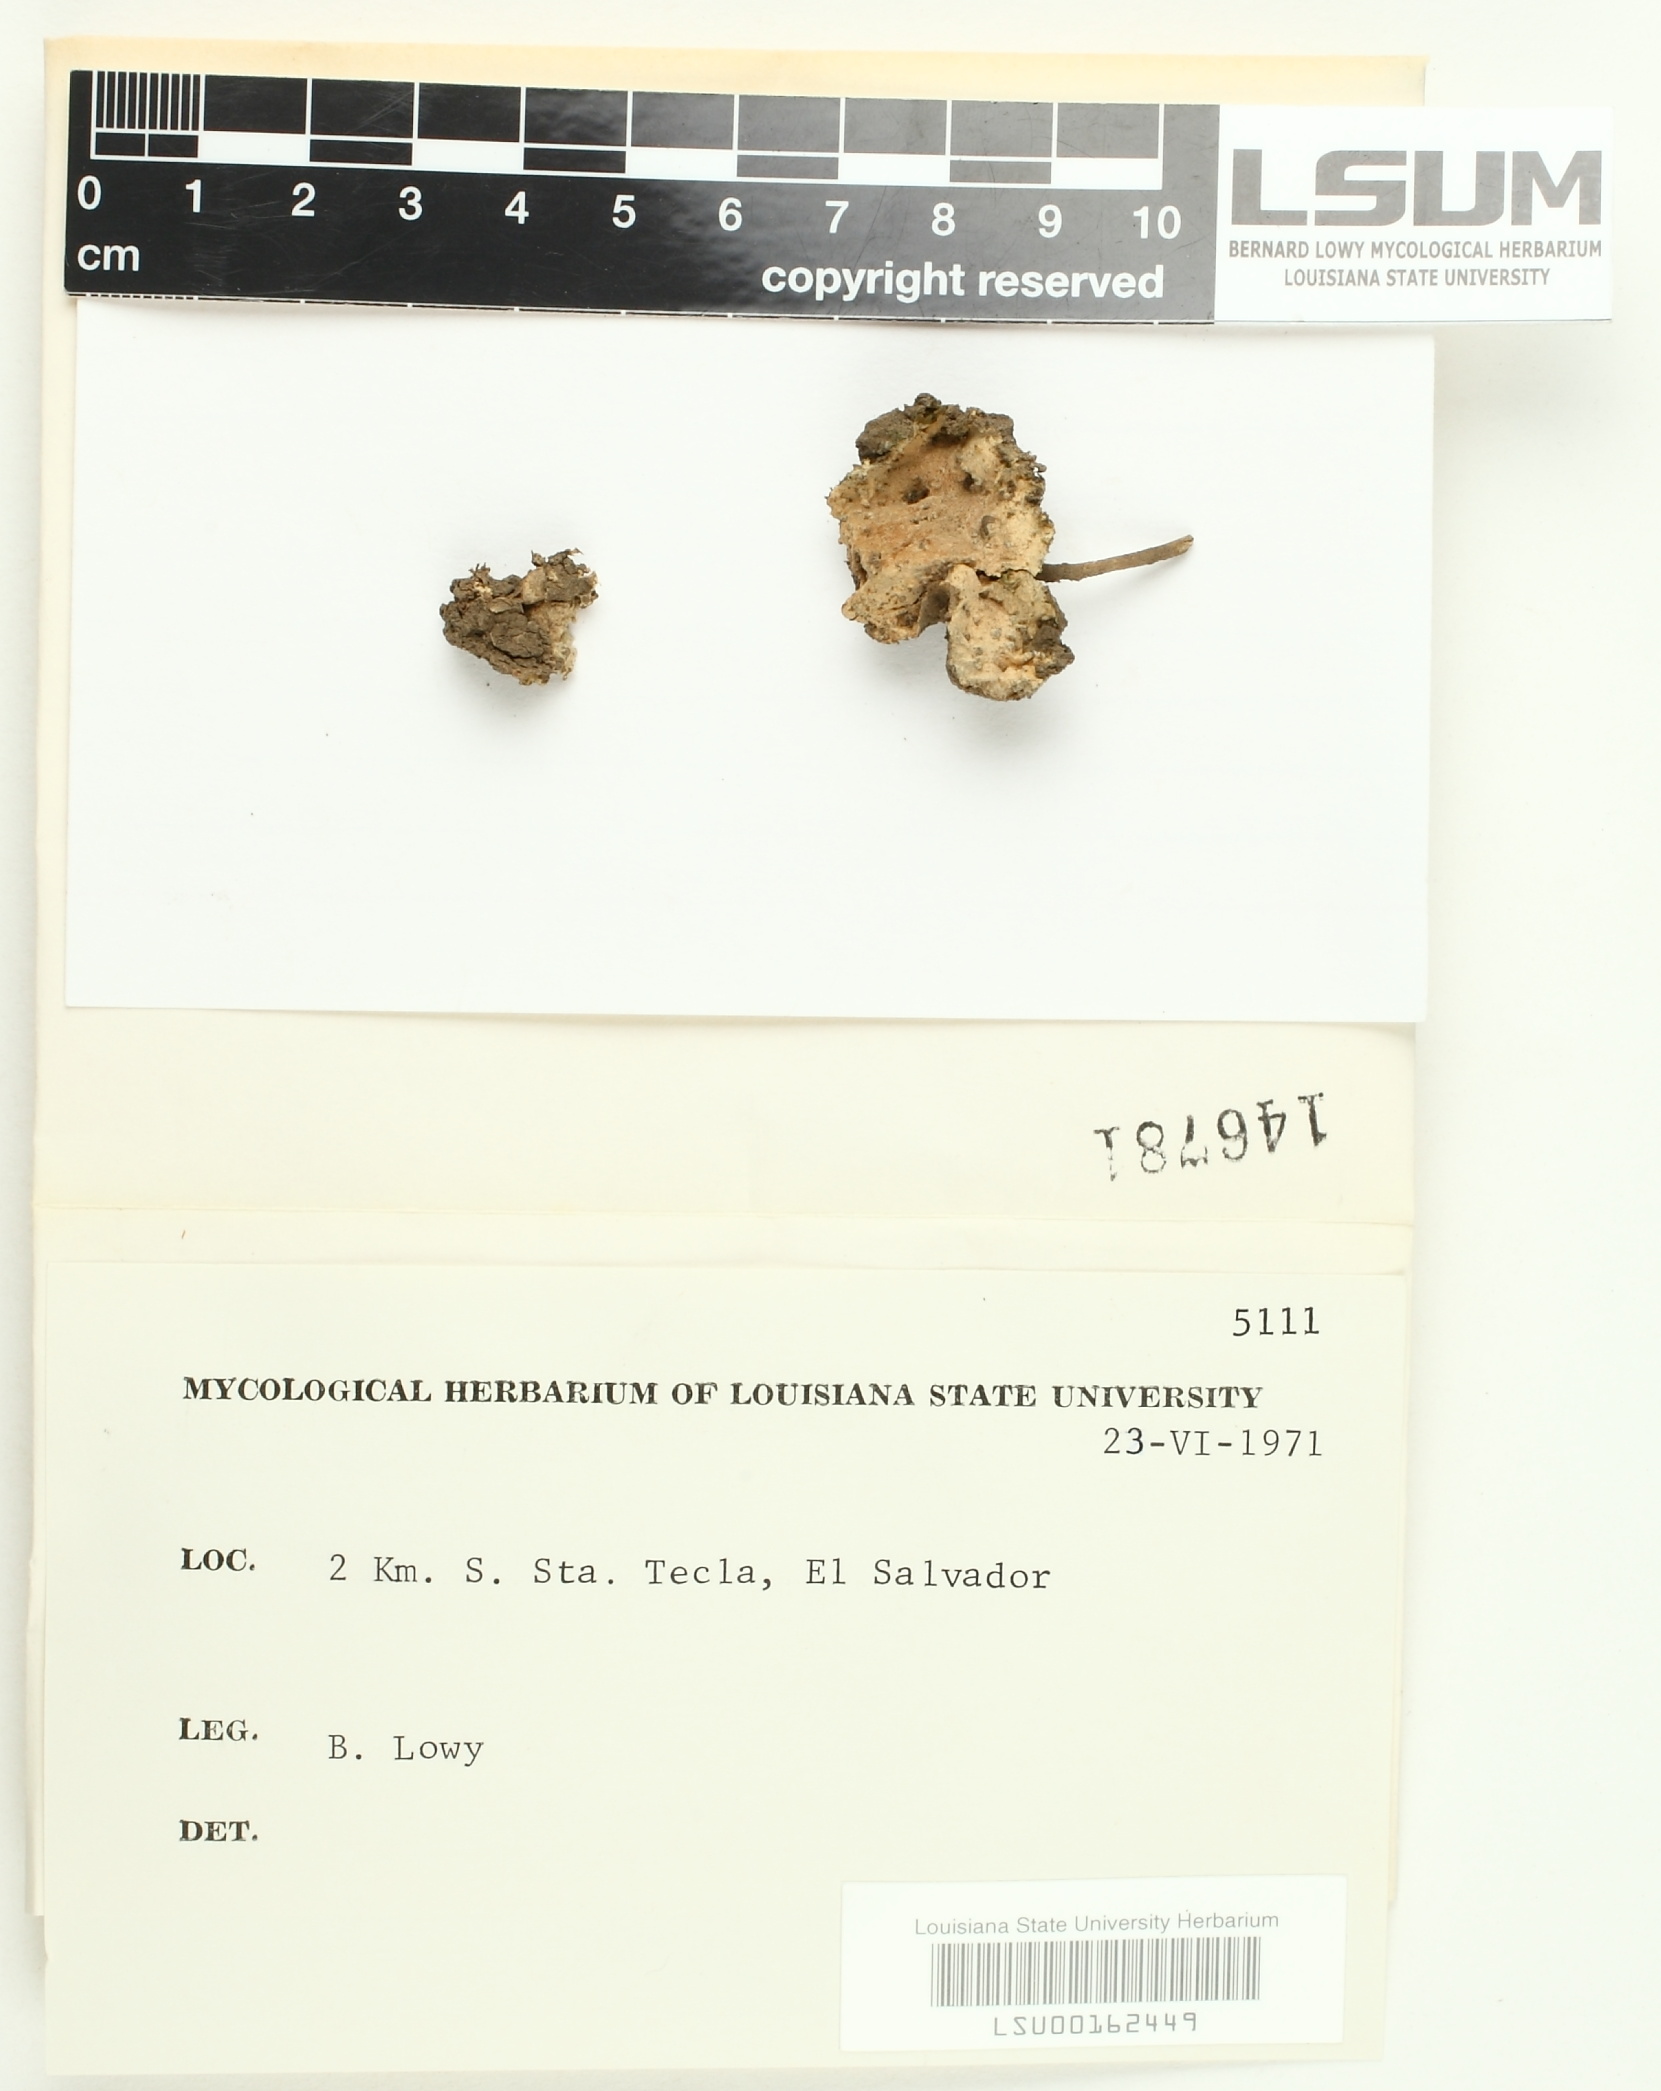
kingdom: Fungi
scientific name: Fungi
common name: Fungi
